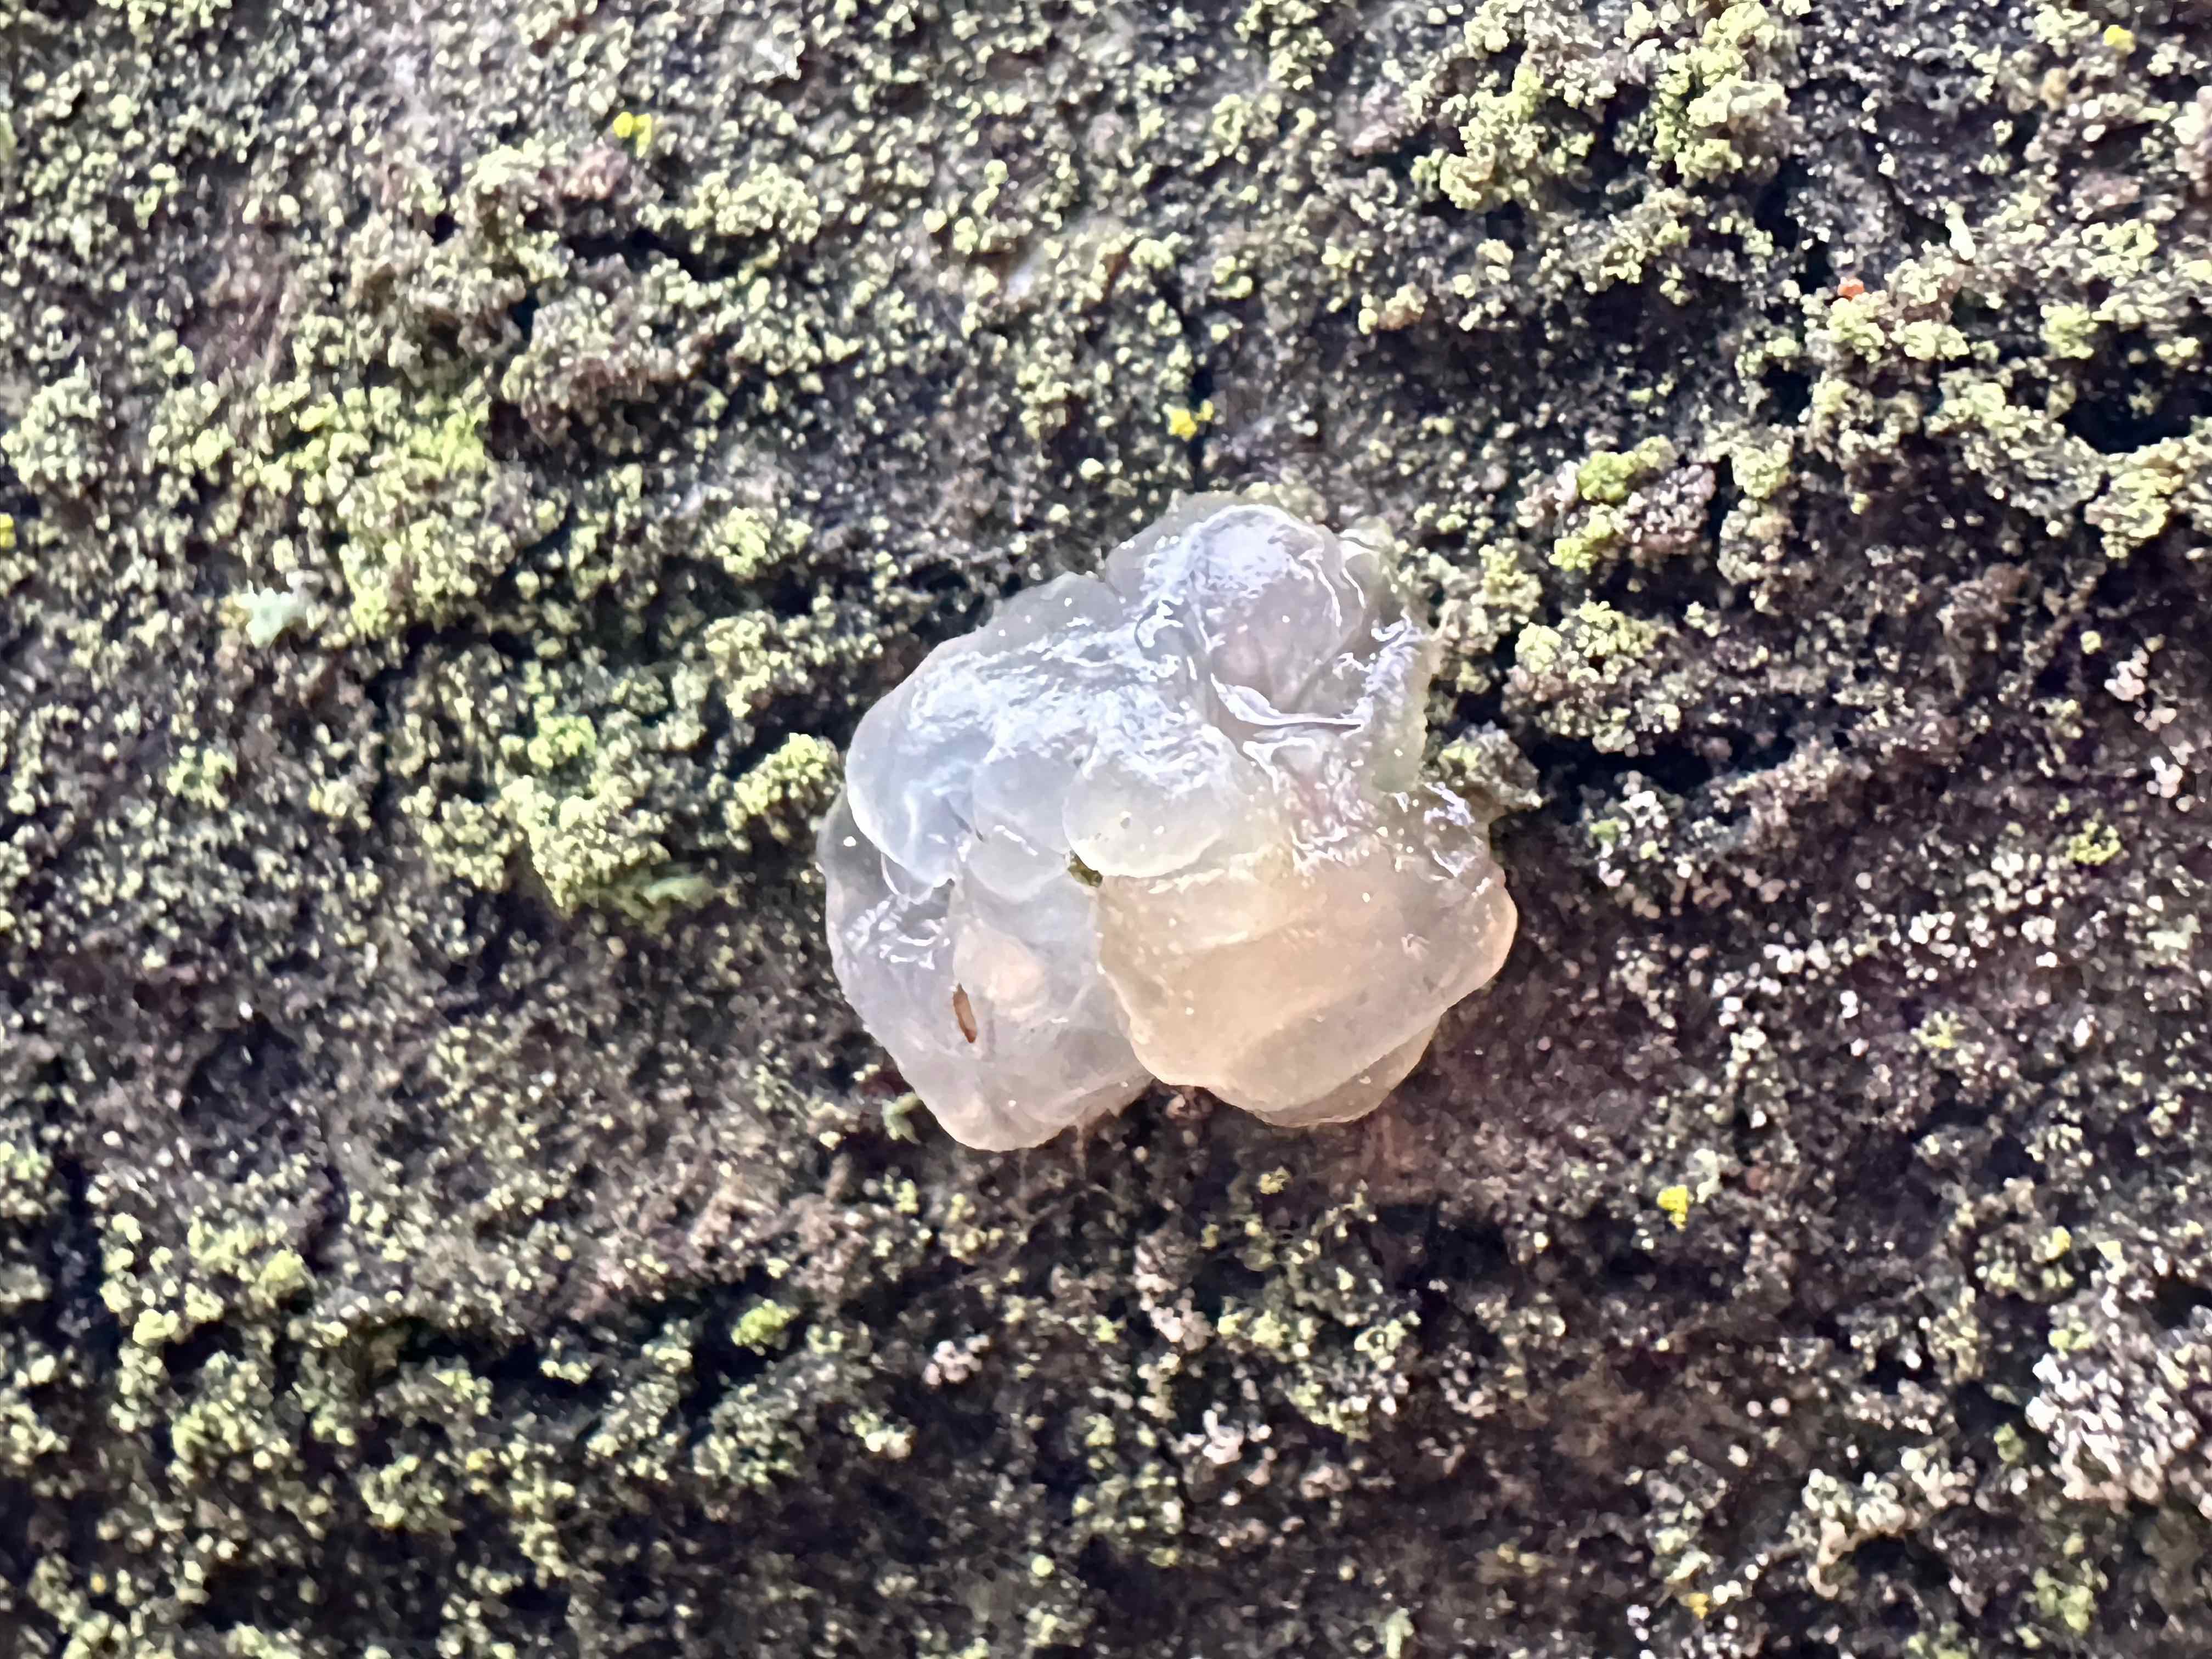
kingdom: Fungi
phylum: Basidiomycota
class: Agaricomycetes
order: Auriculariales
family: Hyaloriaceae
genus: Myxarium
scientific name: Myxarium nucleatum
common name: klar bævretop
